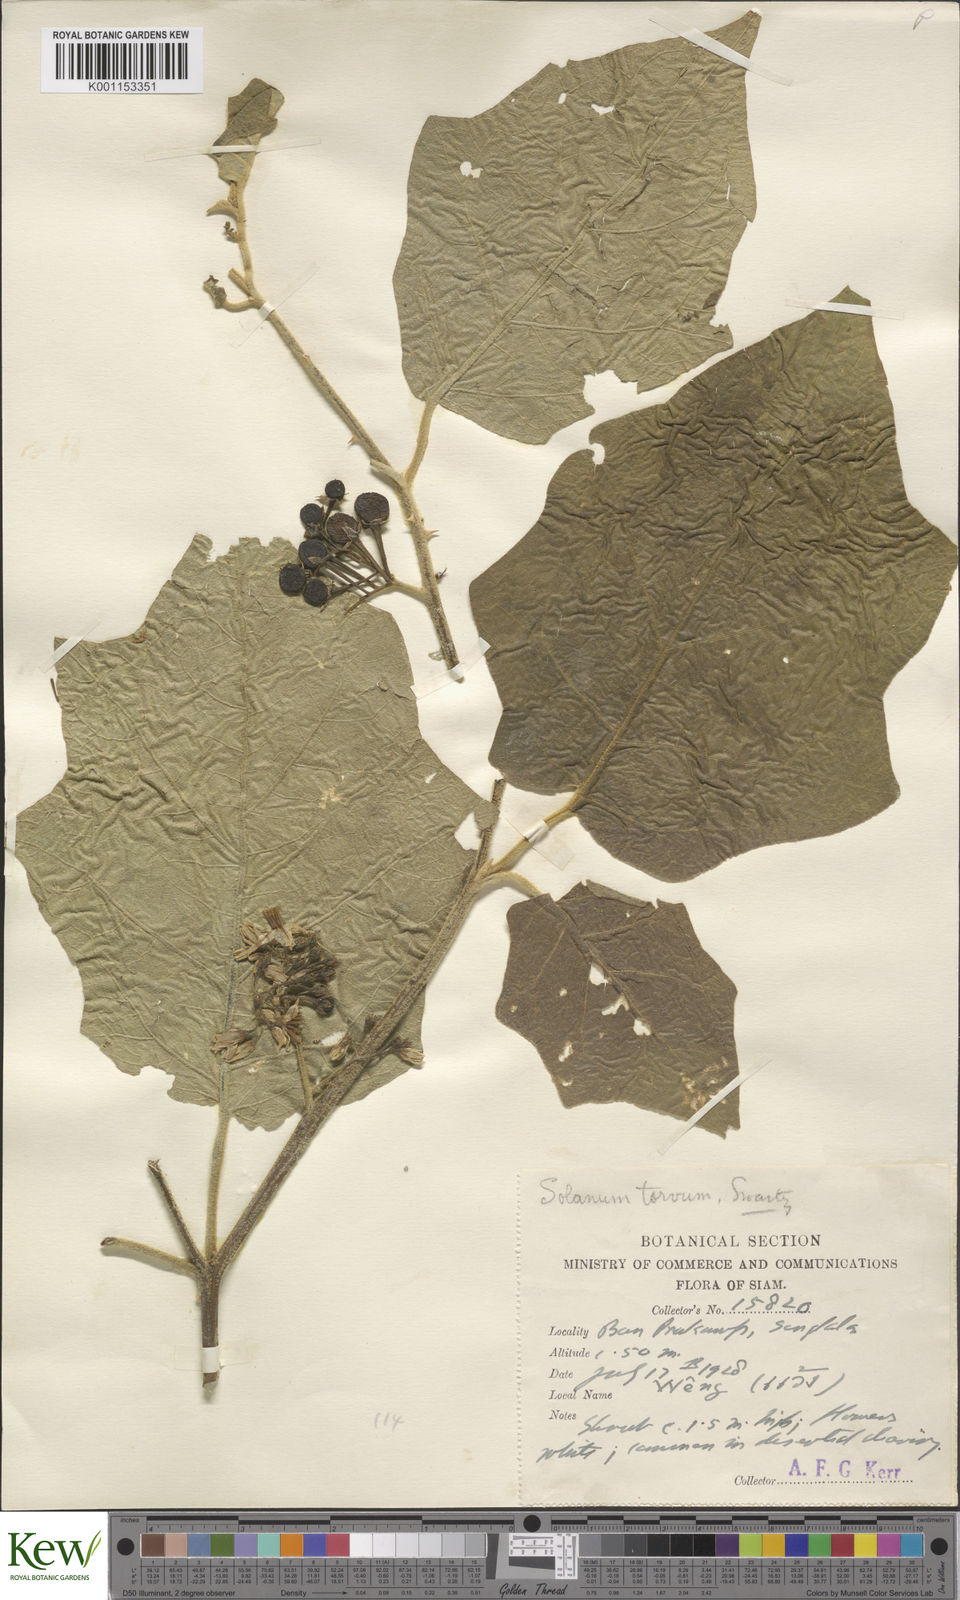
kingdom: Plantae
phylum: Tracheophyta
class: Magnoliopsida
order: Solanales
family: Solanaceae
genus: Solanum
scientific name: Solanum torvum
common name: Turkey berry
